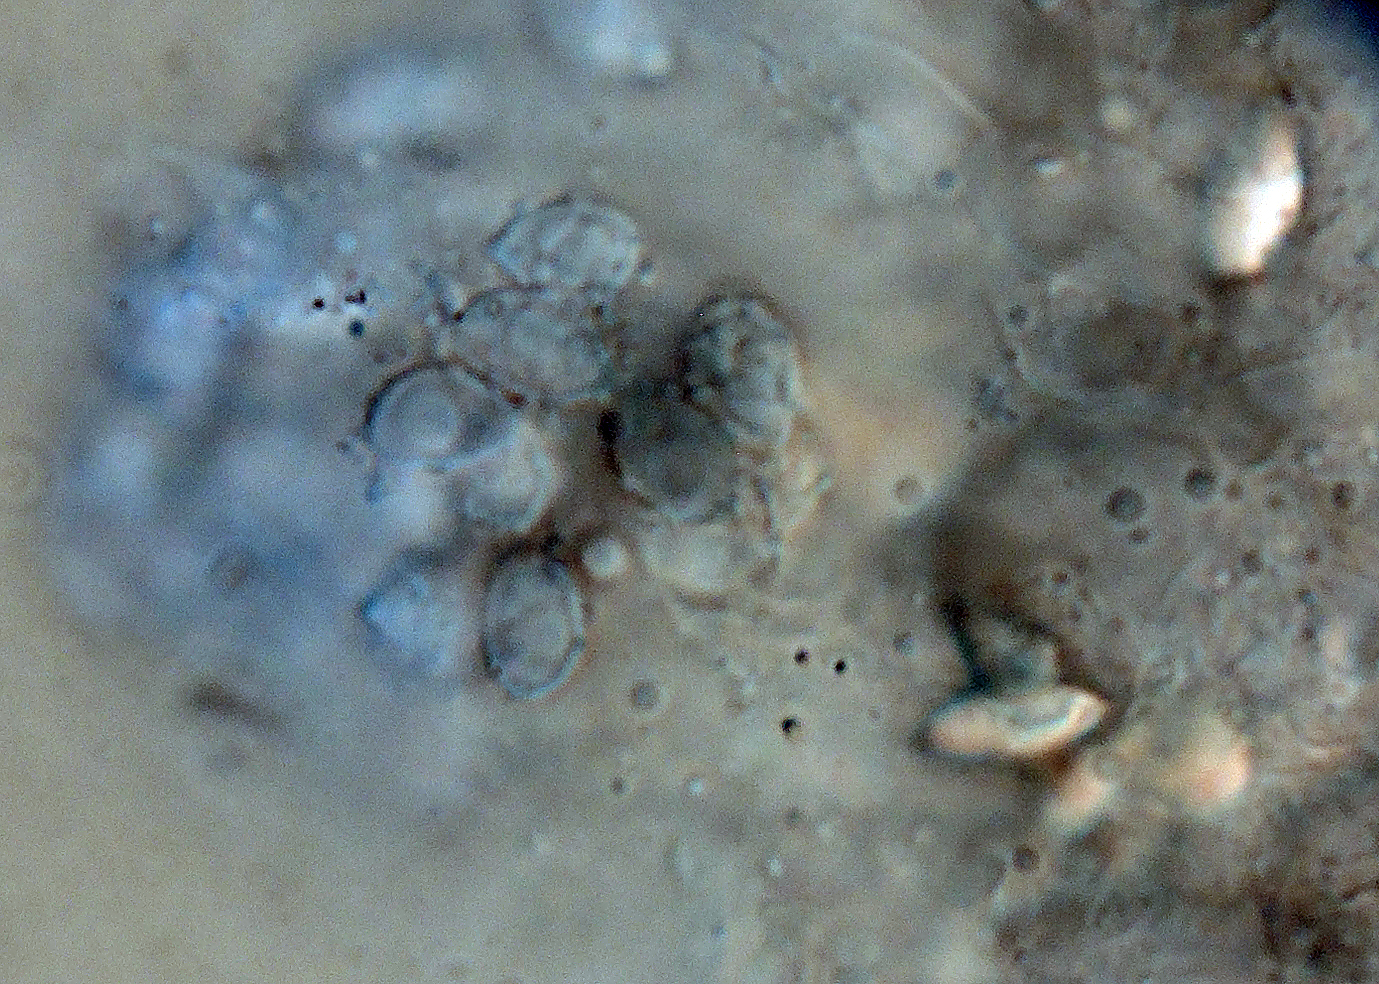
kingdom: Fungi
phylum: Basidiomycota
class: Agaricomycetes
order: Agaricales
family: Stephanosporaceae
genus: Lindtneria
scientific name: Lindtneria panphyliensis
